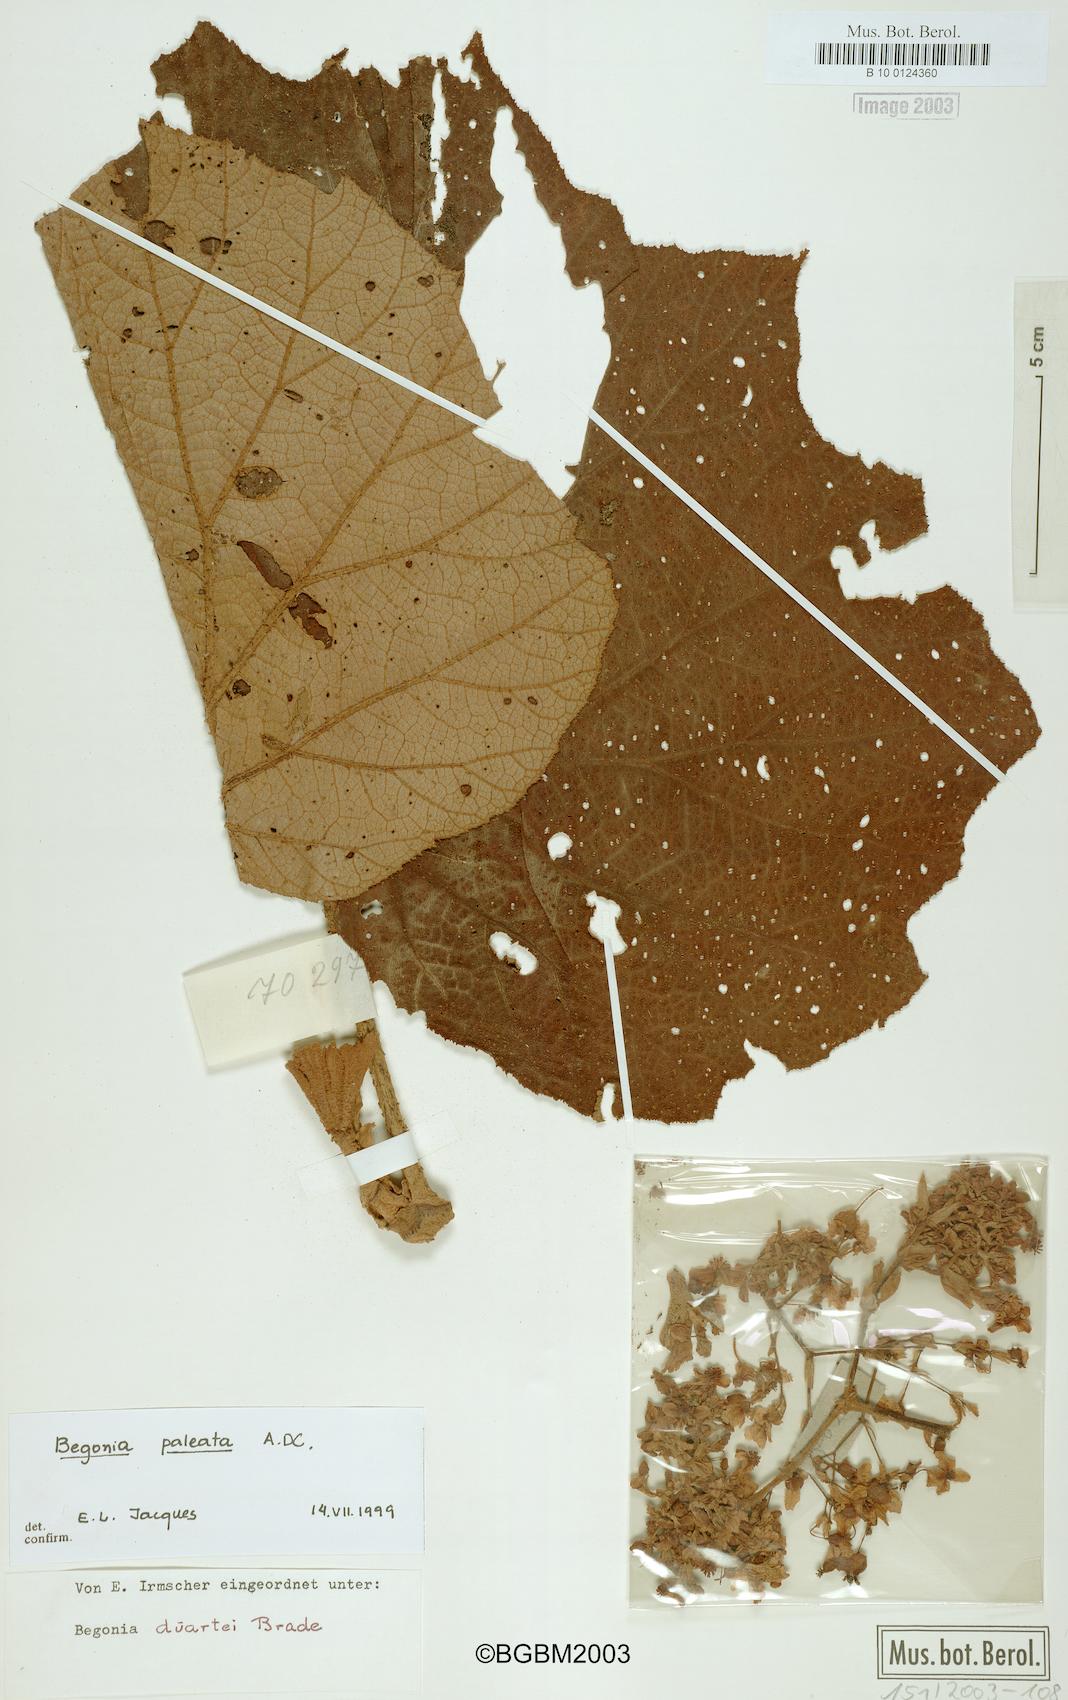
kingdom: Plantae
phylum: Tracheophyta
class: Magnoliopsida
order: Cucurbitales
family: Begoniaceae
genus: Begonia
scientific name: Begonia paleata
